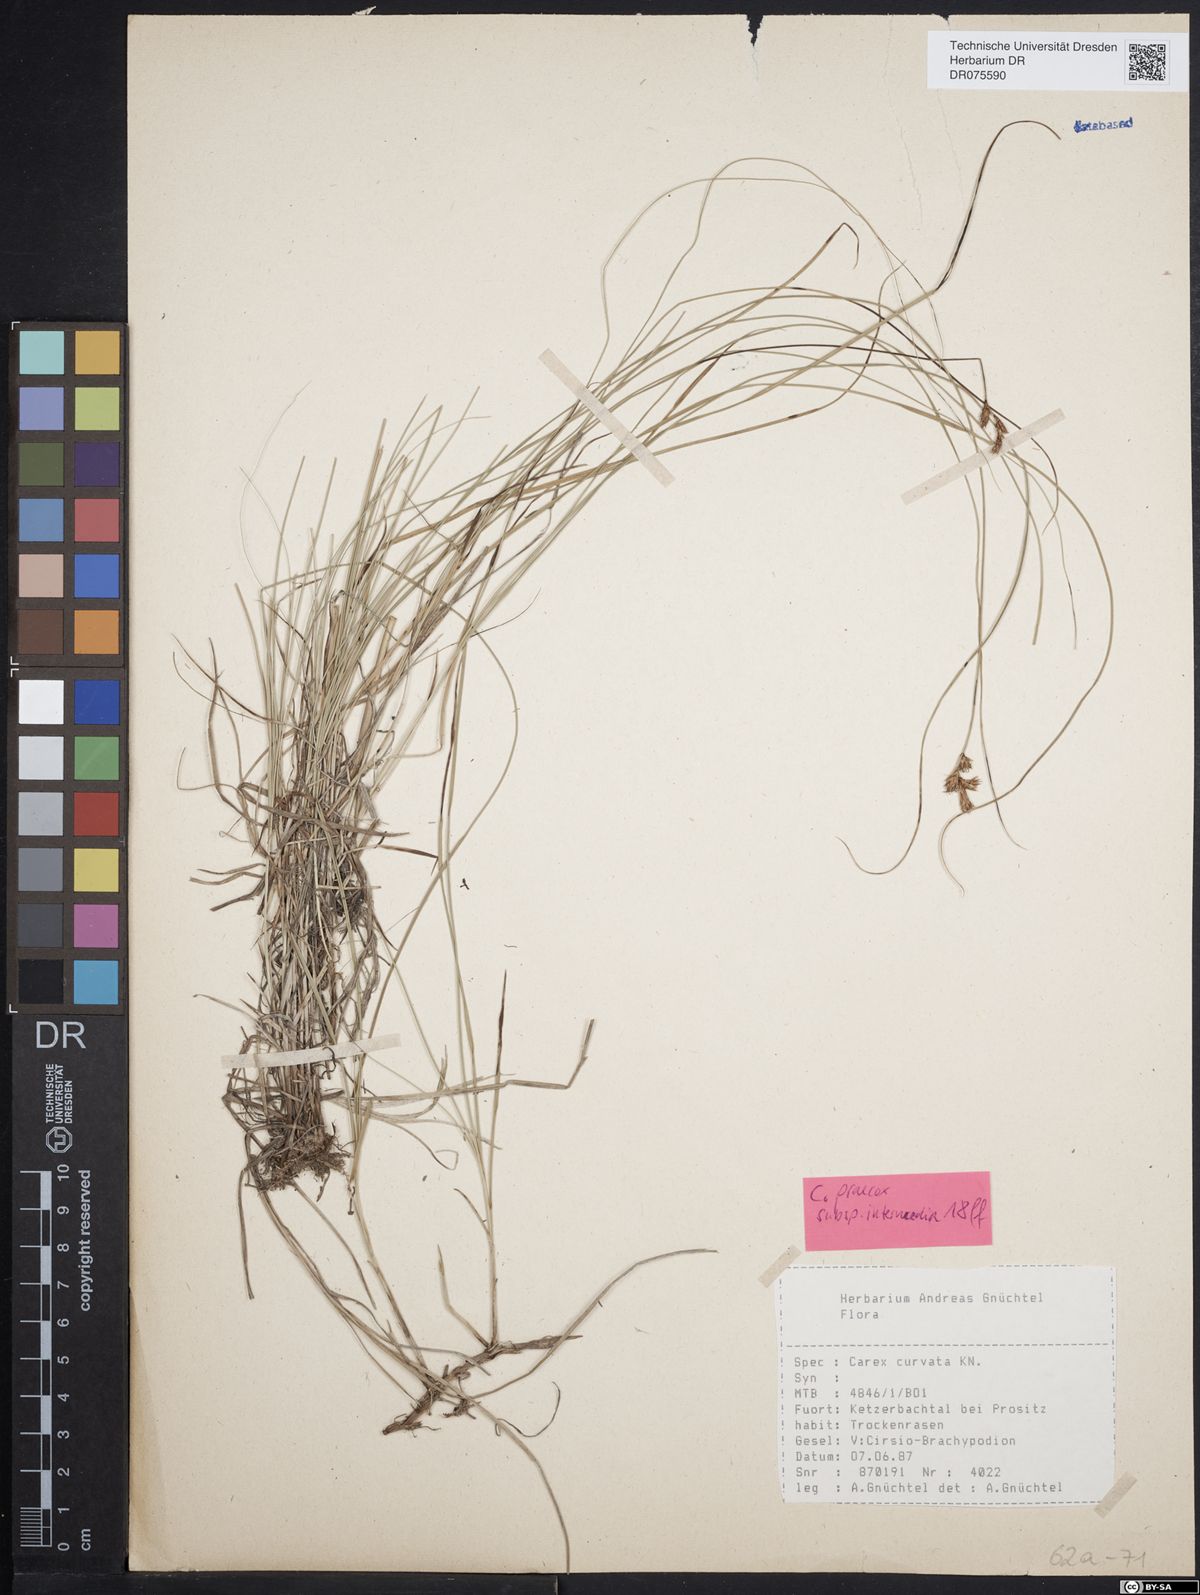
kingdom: Plantae
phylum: Tracheophyta
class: Liliopsida
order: Poales
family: Cyperaceae
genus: Carex
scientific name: Carex praecox
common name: Early sedge
